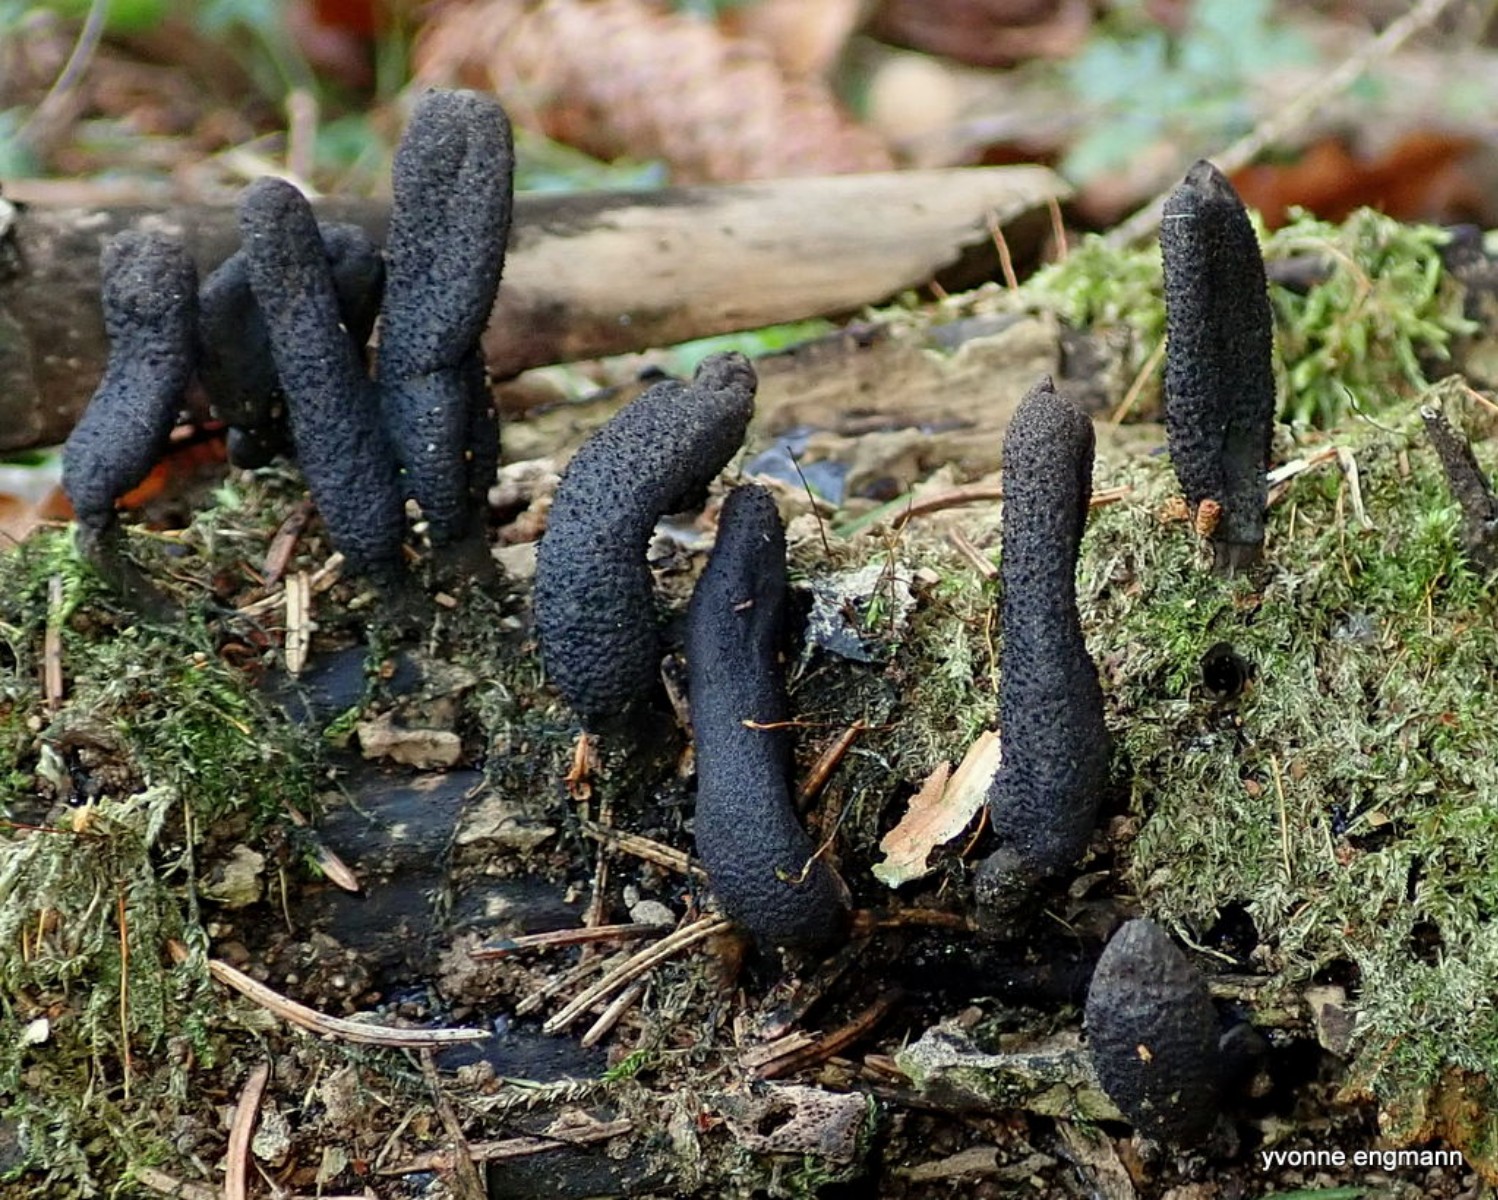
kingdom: Fungi
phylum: Ascomycota
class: Sordariomycetes
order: Xylariales
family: Xylariaceae
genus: Xylaria
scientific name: Xylaria longipes
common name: slank stødsvamp
